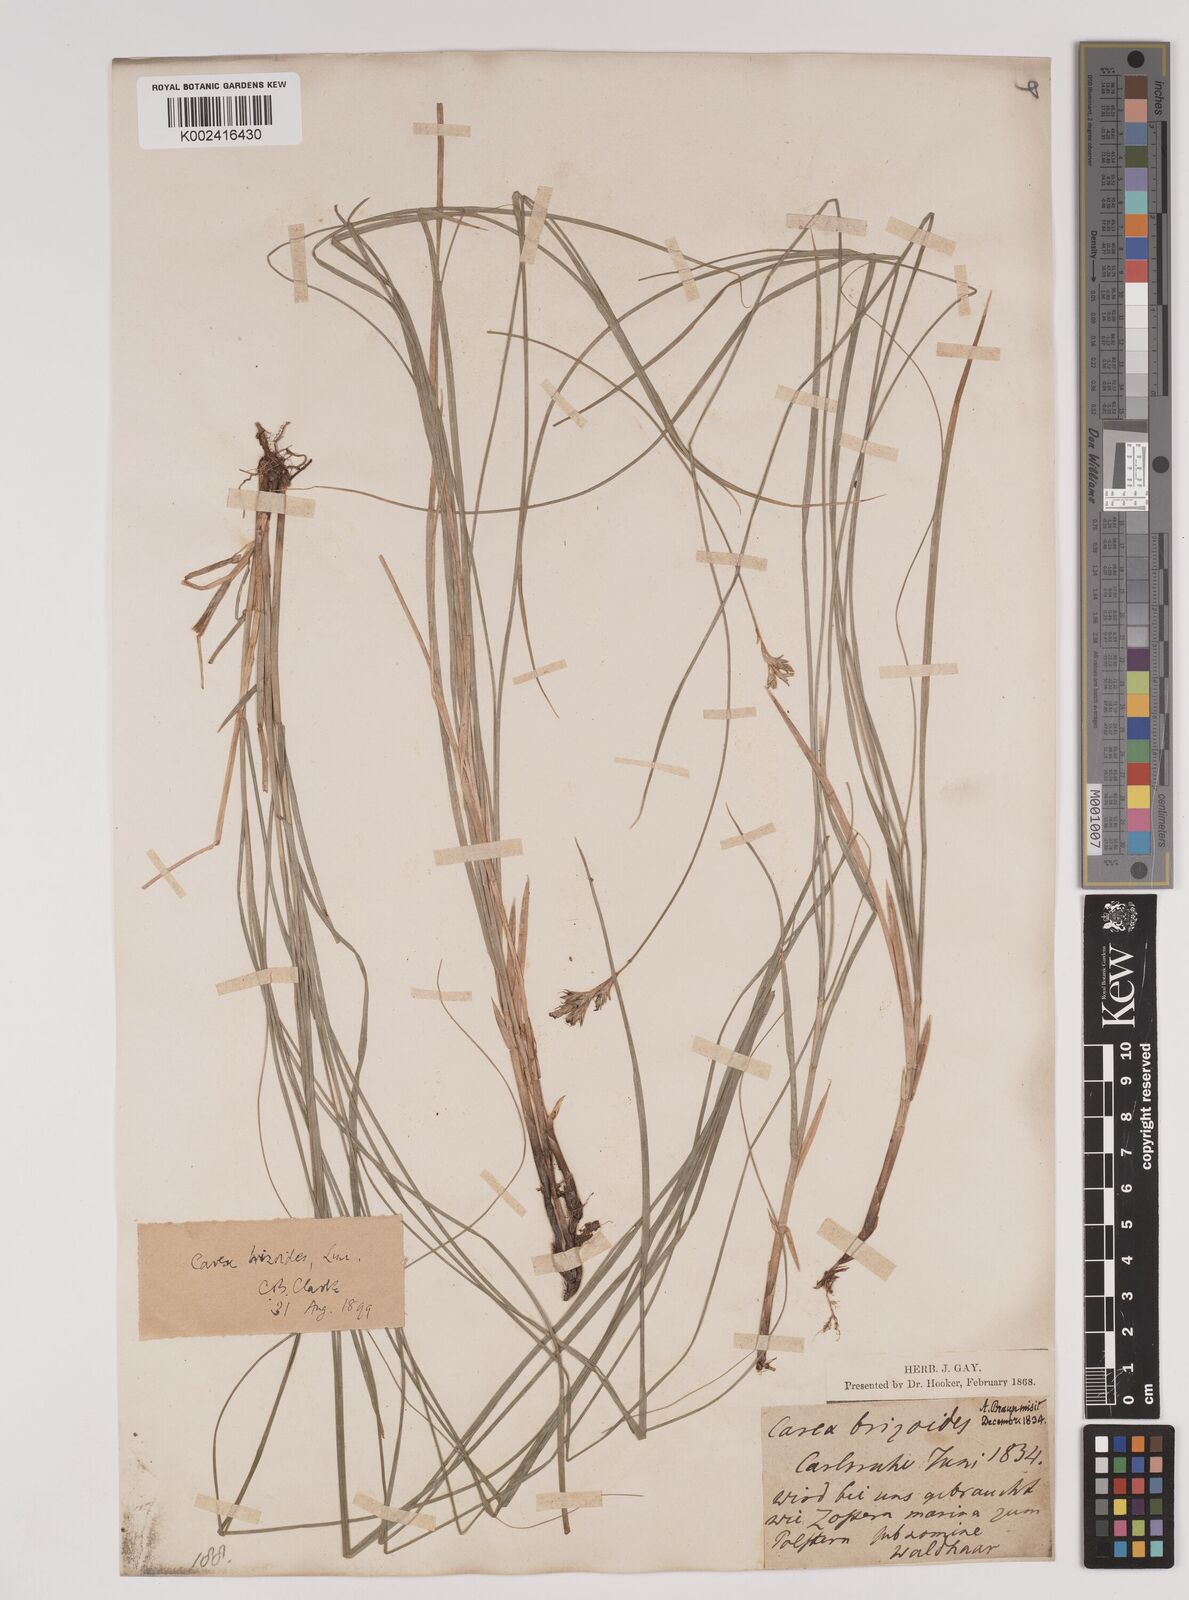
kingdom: Plantae
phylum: Tracheophyta
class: Liliopsida
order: Poales
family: Cyperaceae
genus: Carex
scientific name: Carex brizoides
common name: Quaking-grass sedge
